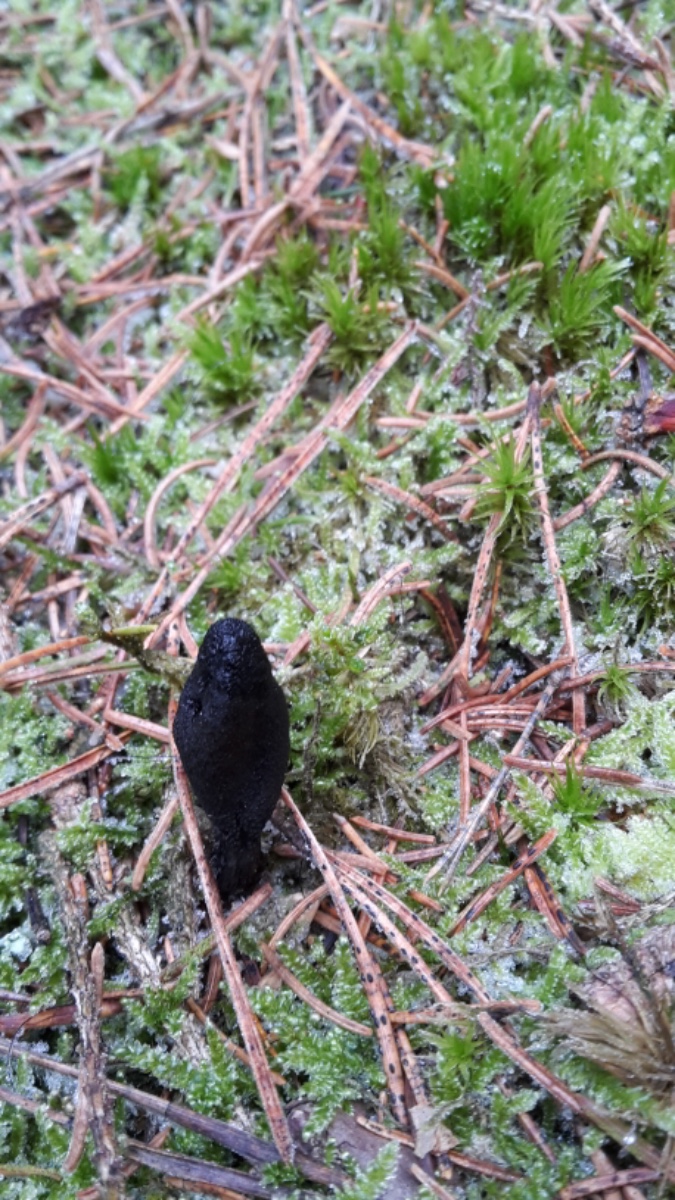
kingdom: Fungi
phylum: Ascomycota
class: Sordariomycetes
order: Hypocreales
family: Ophiocordycipitaceae
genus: Tolypocladium
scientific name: Tolypocladium ophioglossoides
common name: slank snyltekølle
